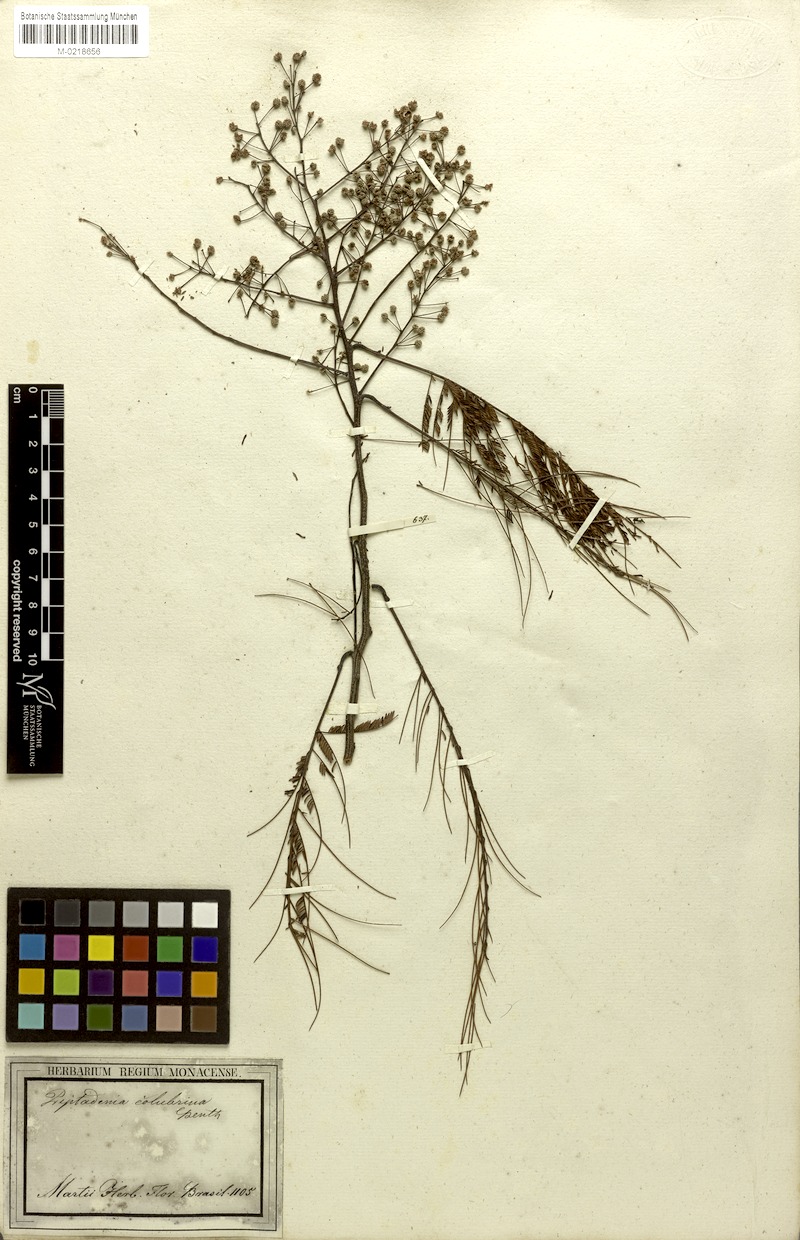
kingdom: Plantae
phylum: Tracheophyta
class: Magnoliopsida
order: Fabales
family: Fabaceae
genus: Anadenanthera
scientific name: Anadenanthera colubrina
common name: Curupay
